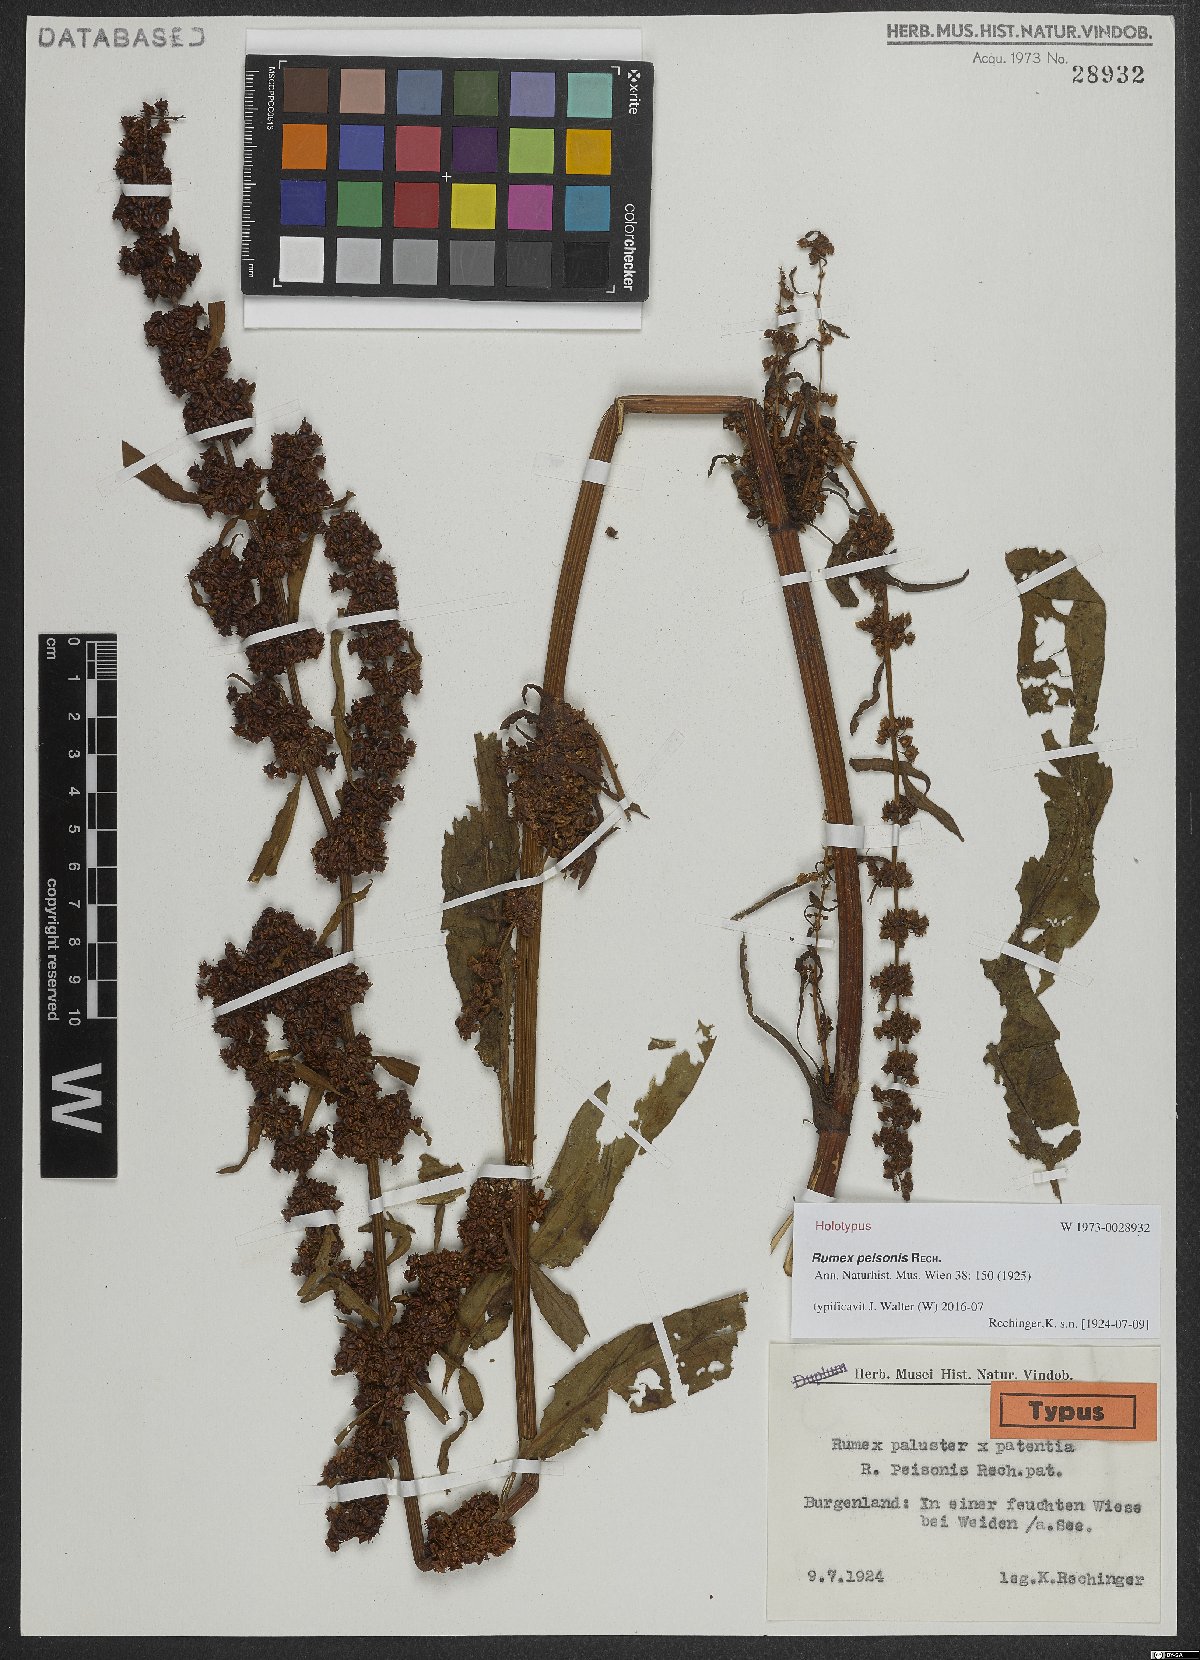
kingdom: Plantae
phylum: Tracheophyta
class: Magnoliopsida
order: Caryophyllales
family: Polygonaceae
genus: Rumex
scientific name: Rumex peisonis
